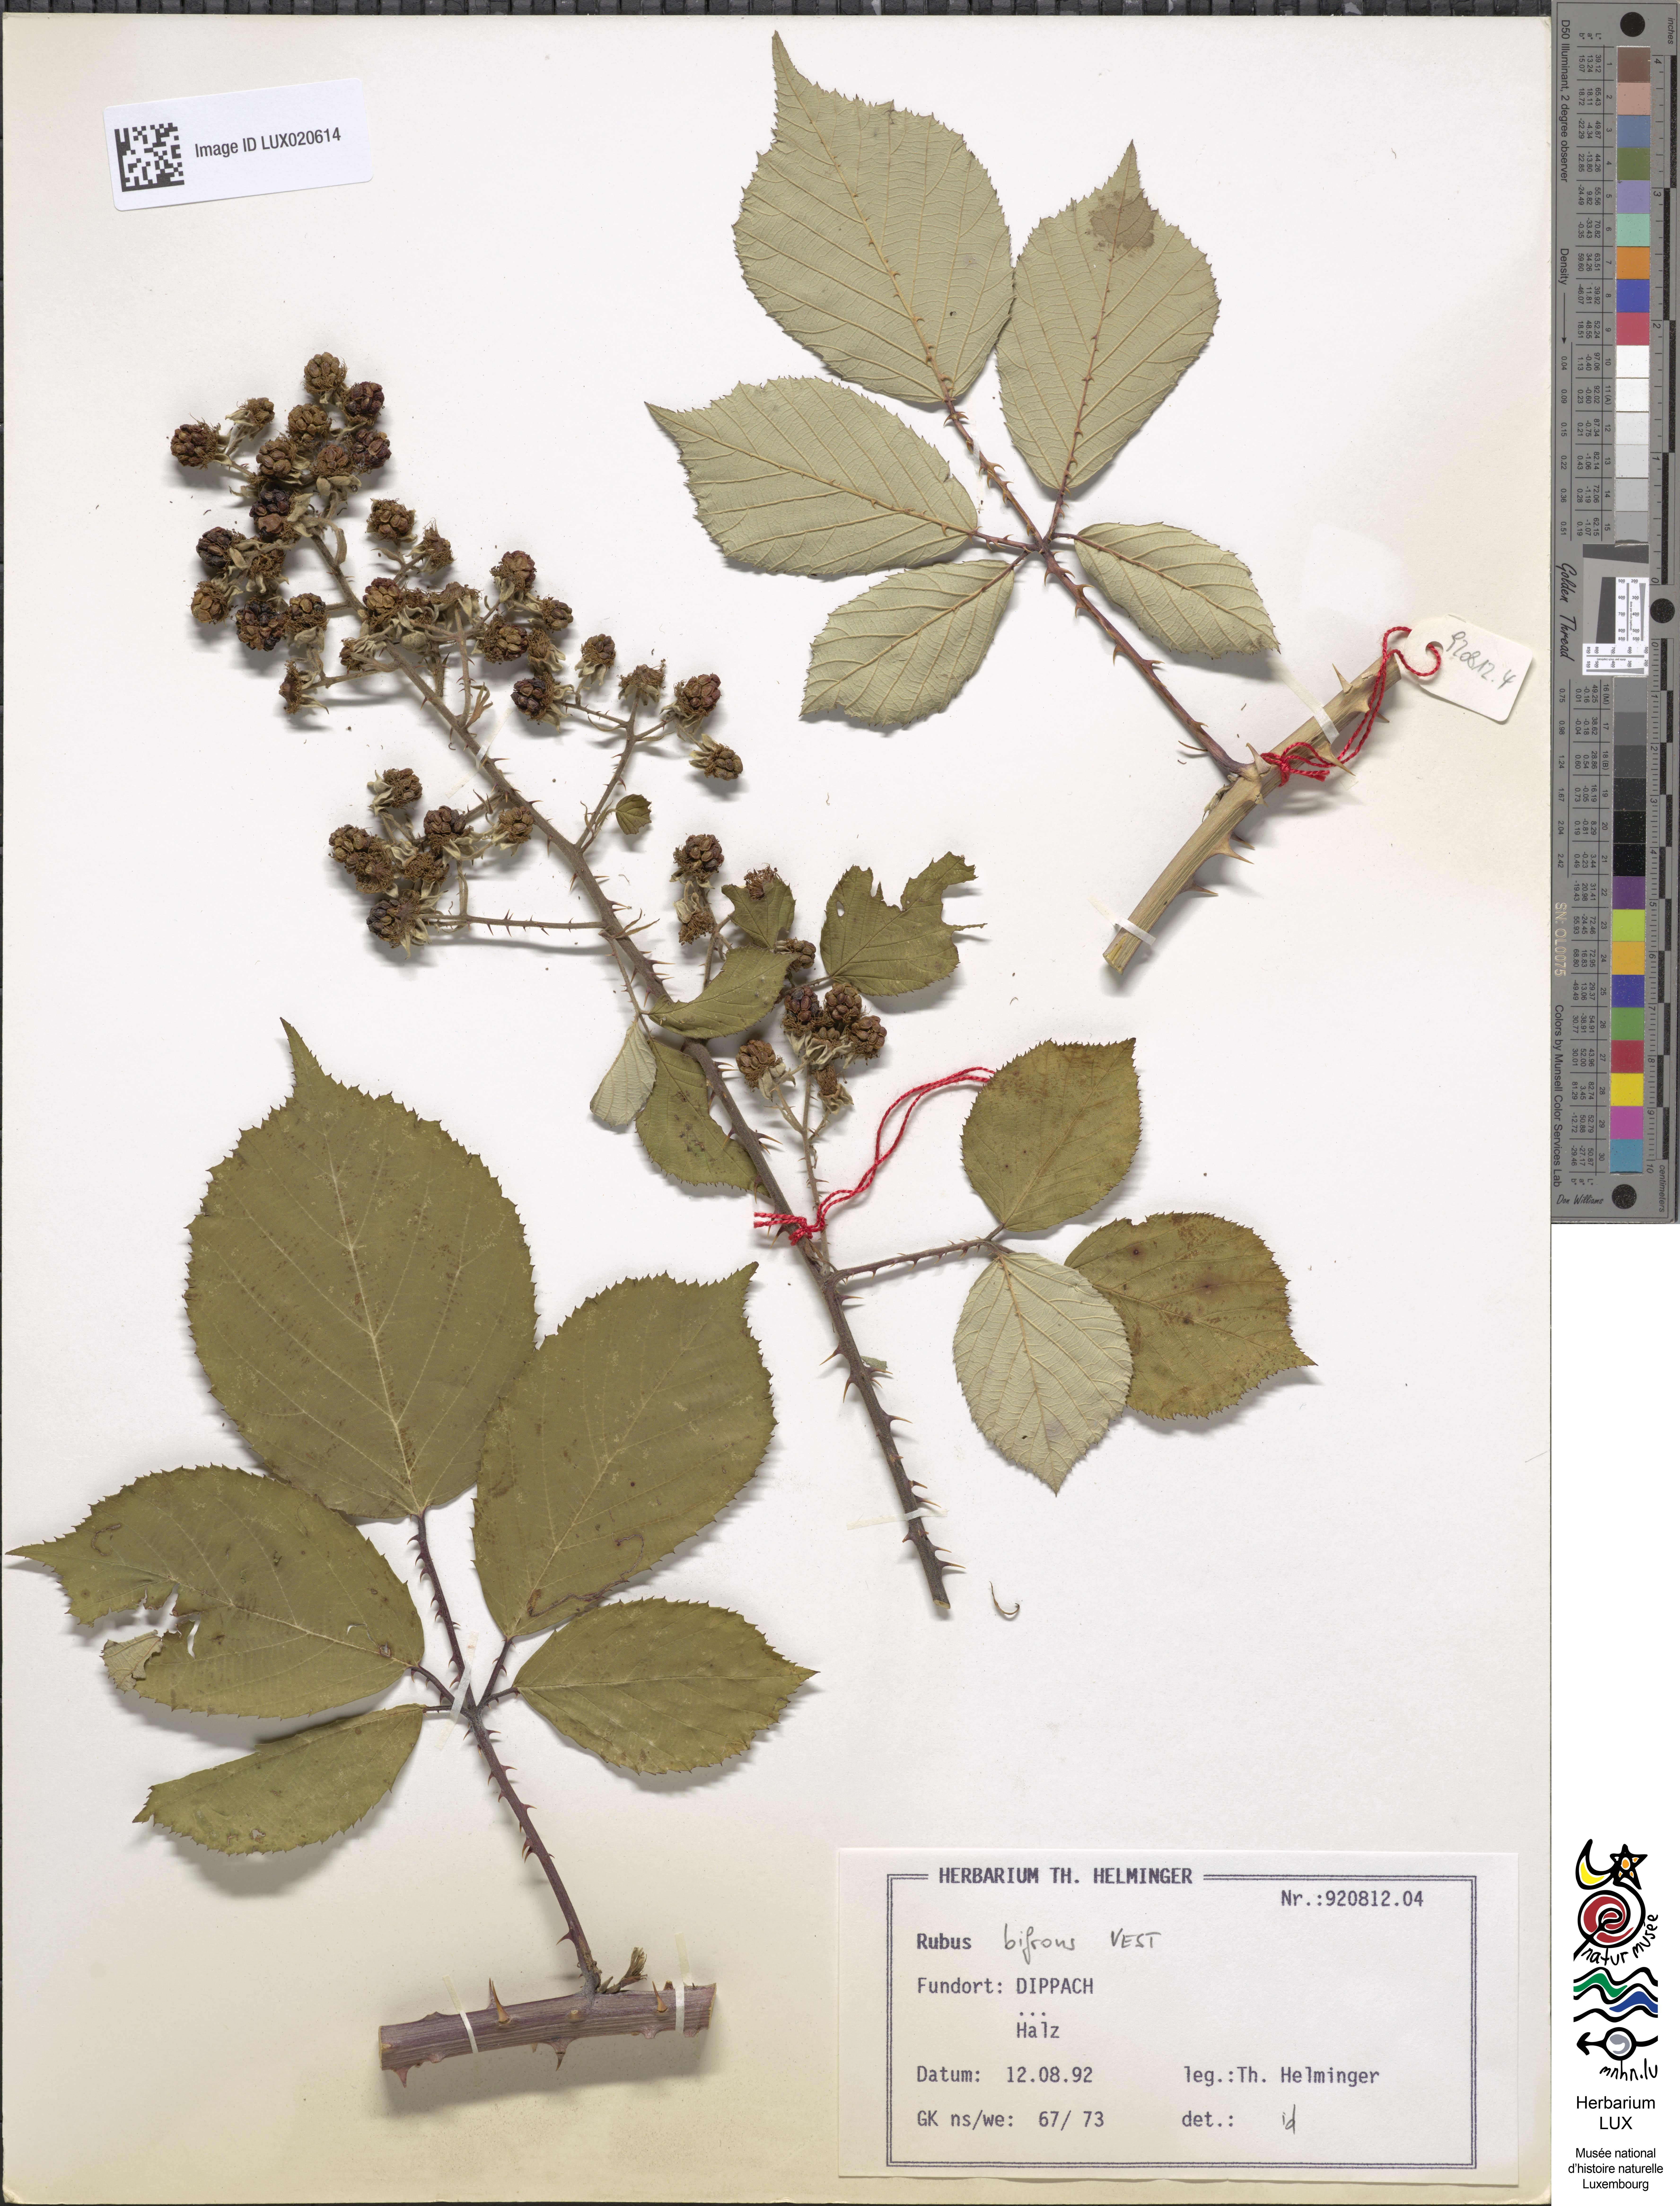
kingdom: Plantae
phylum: Tracheophyta
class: Magnoliopsida
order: Rosales
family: Rosaceae
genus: Rubus
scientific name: Rubus bifrons
